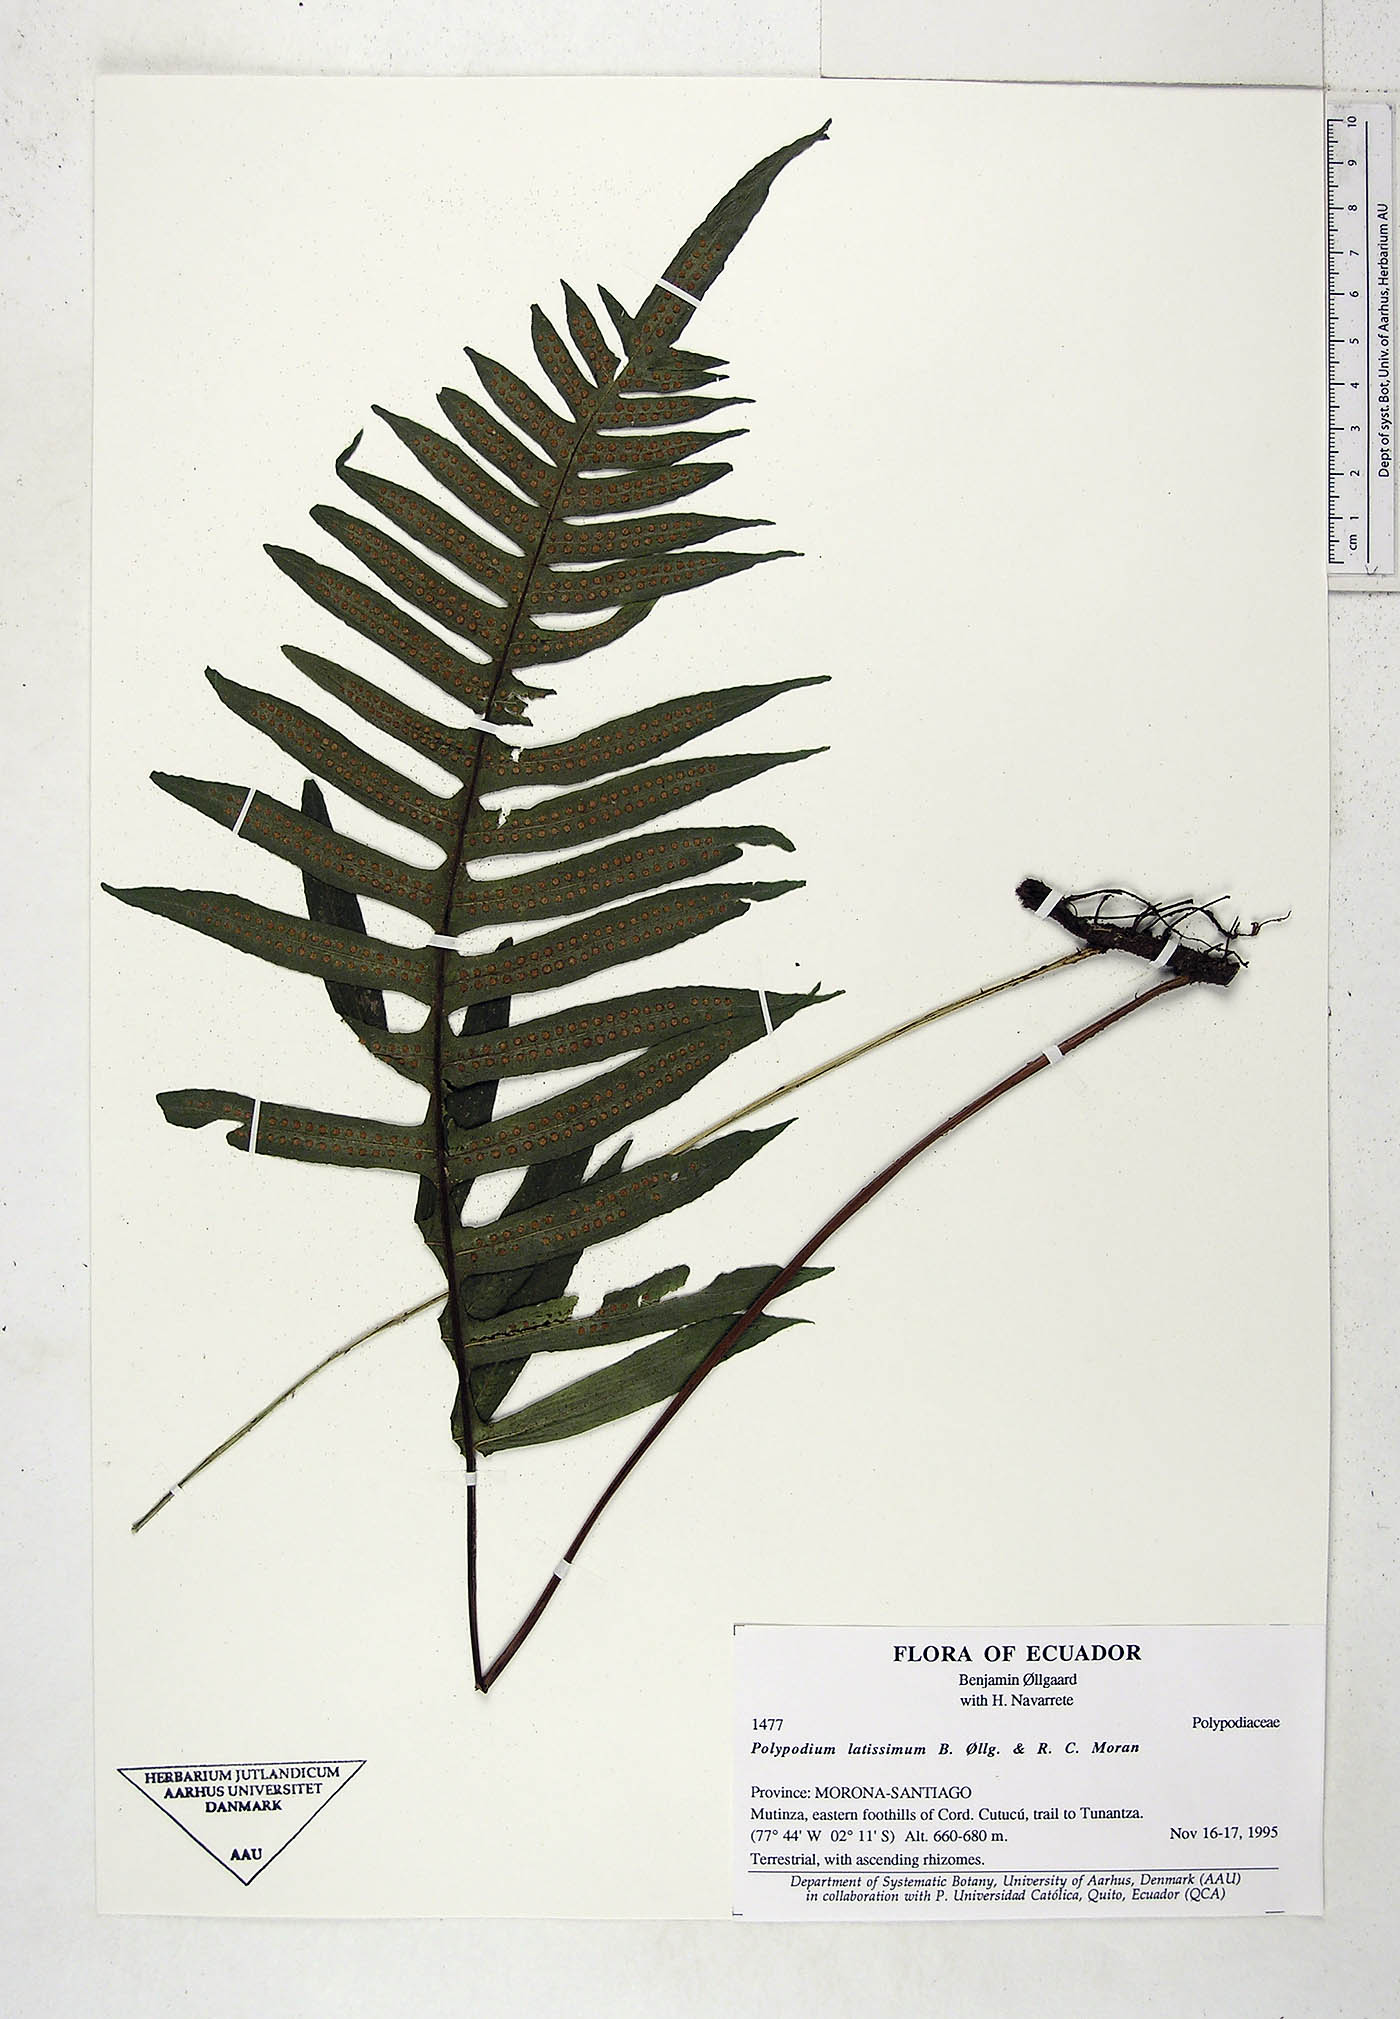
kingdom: Plantae
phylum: Tracheophyta
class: Polypodiopsida
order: Polypodiales
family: Polypodiaceae
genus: Serpocaulon
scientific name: Serpocaulon latissimum
